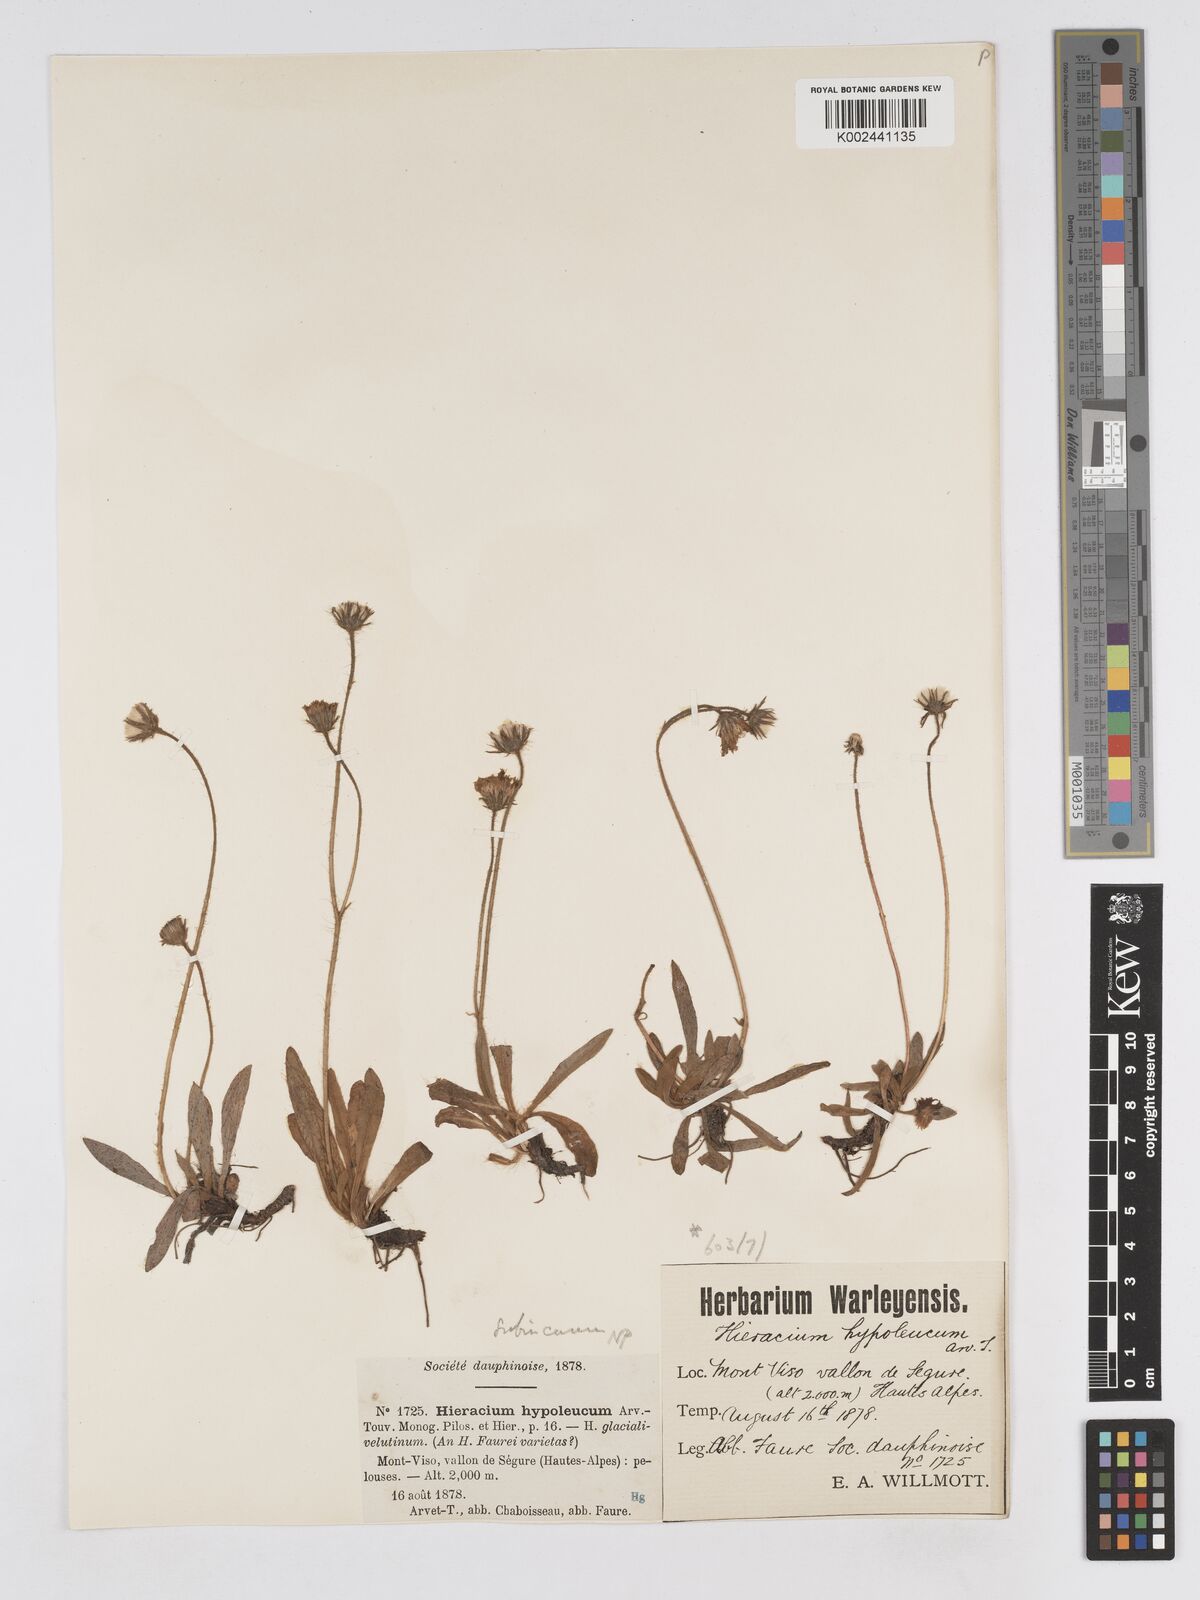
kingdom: Plantae
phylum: Tracheophyta
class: Magnoliopsida
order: Asterales
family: Asteraceae
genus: Pilosella
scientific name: Pilosella hypoleuca
